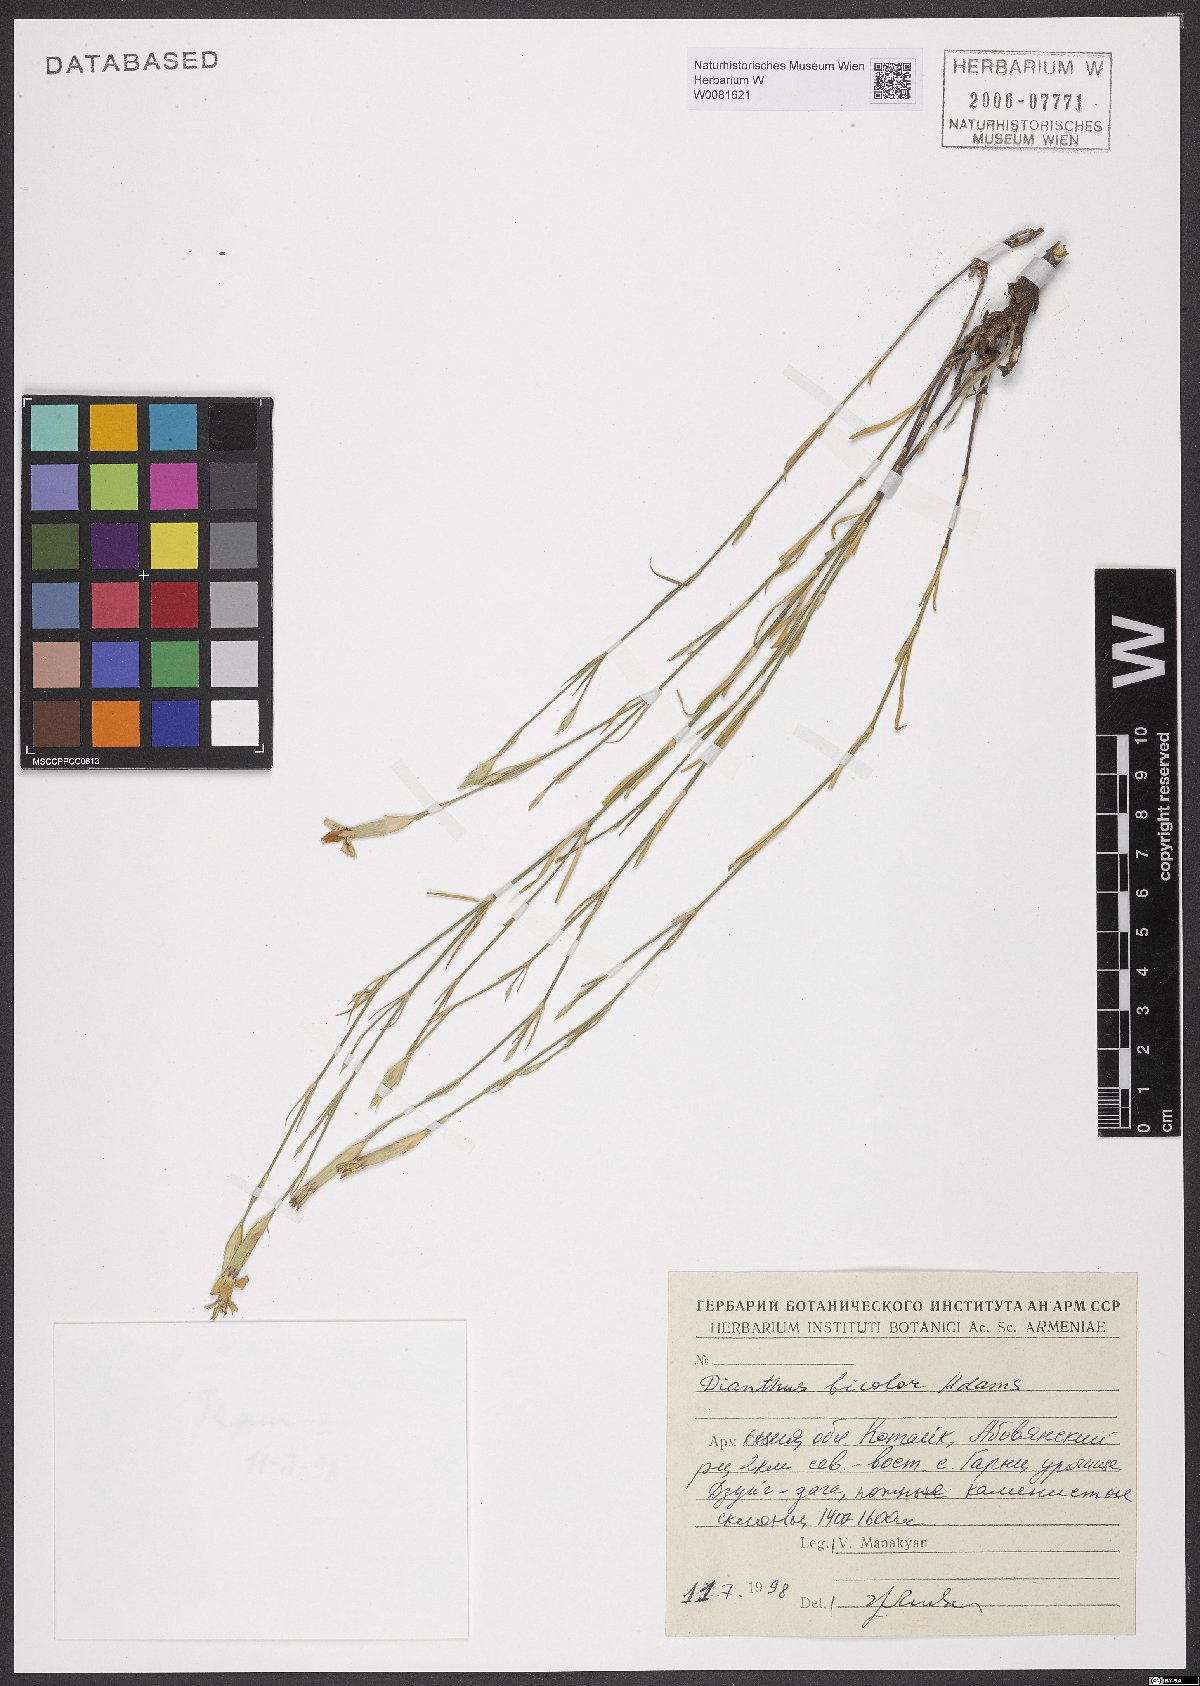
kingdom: Plantae
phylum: Tracheophyta
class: Magnoliopsida
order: Caryophyllales
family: Caryophyllaceae
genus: Dianthus
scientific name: Dianthus bicolor
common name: Bicolour pink
